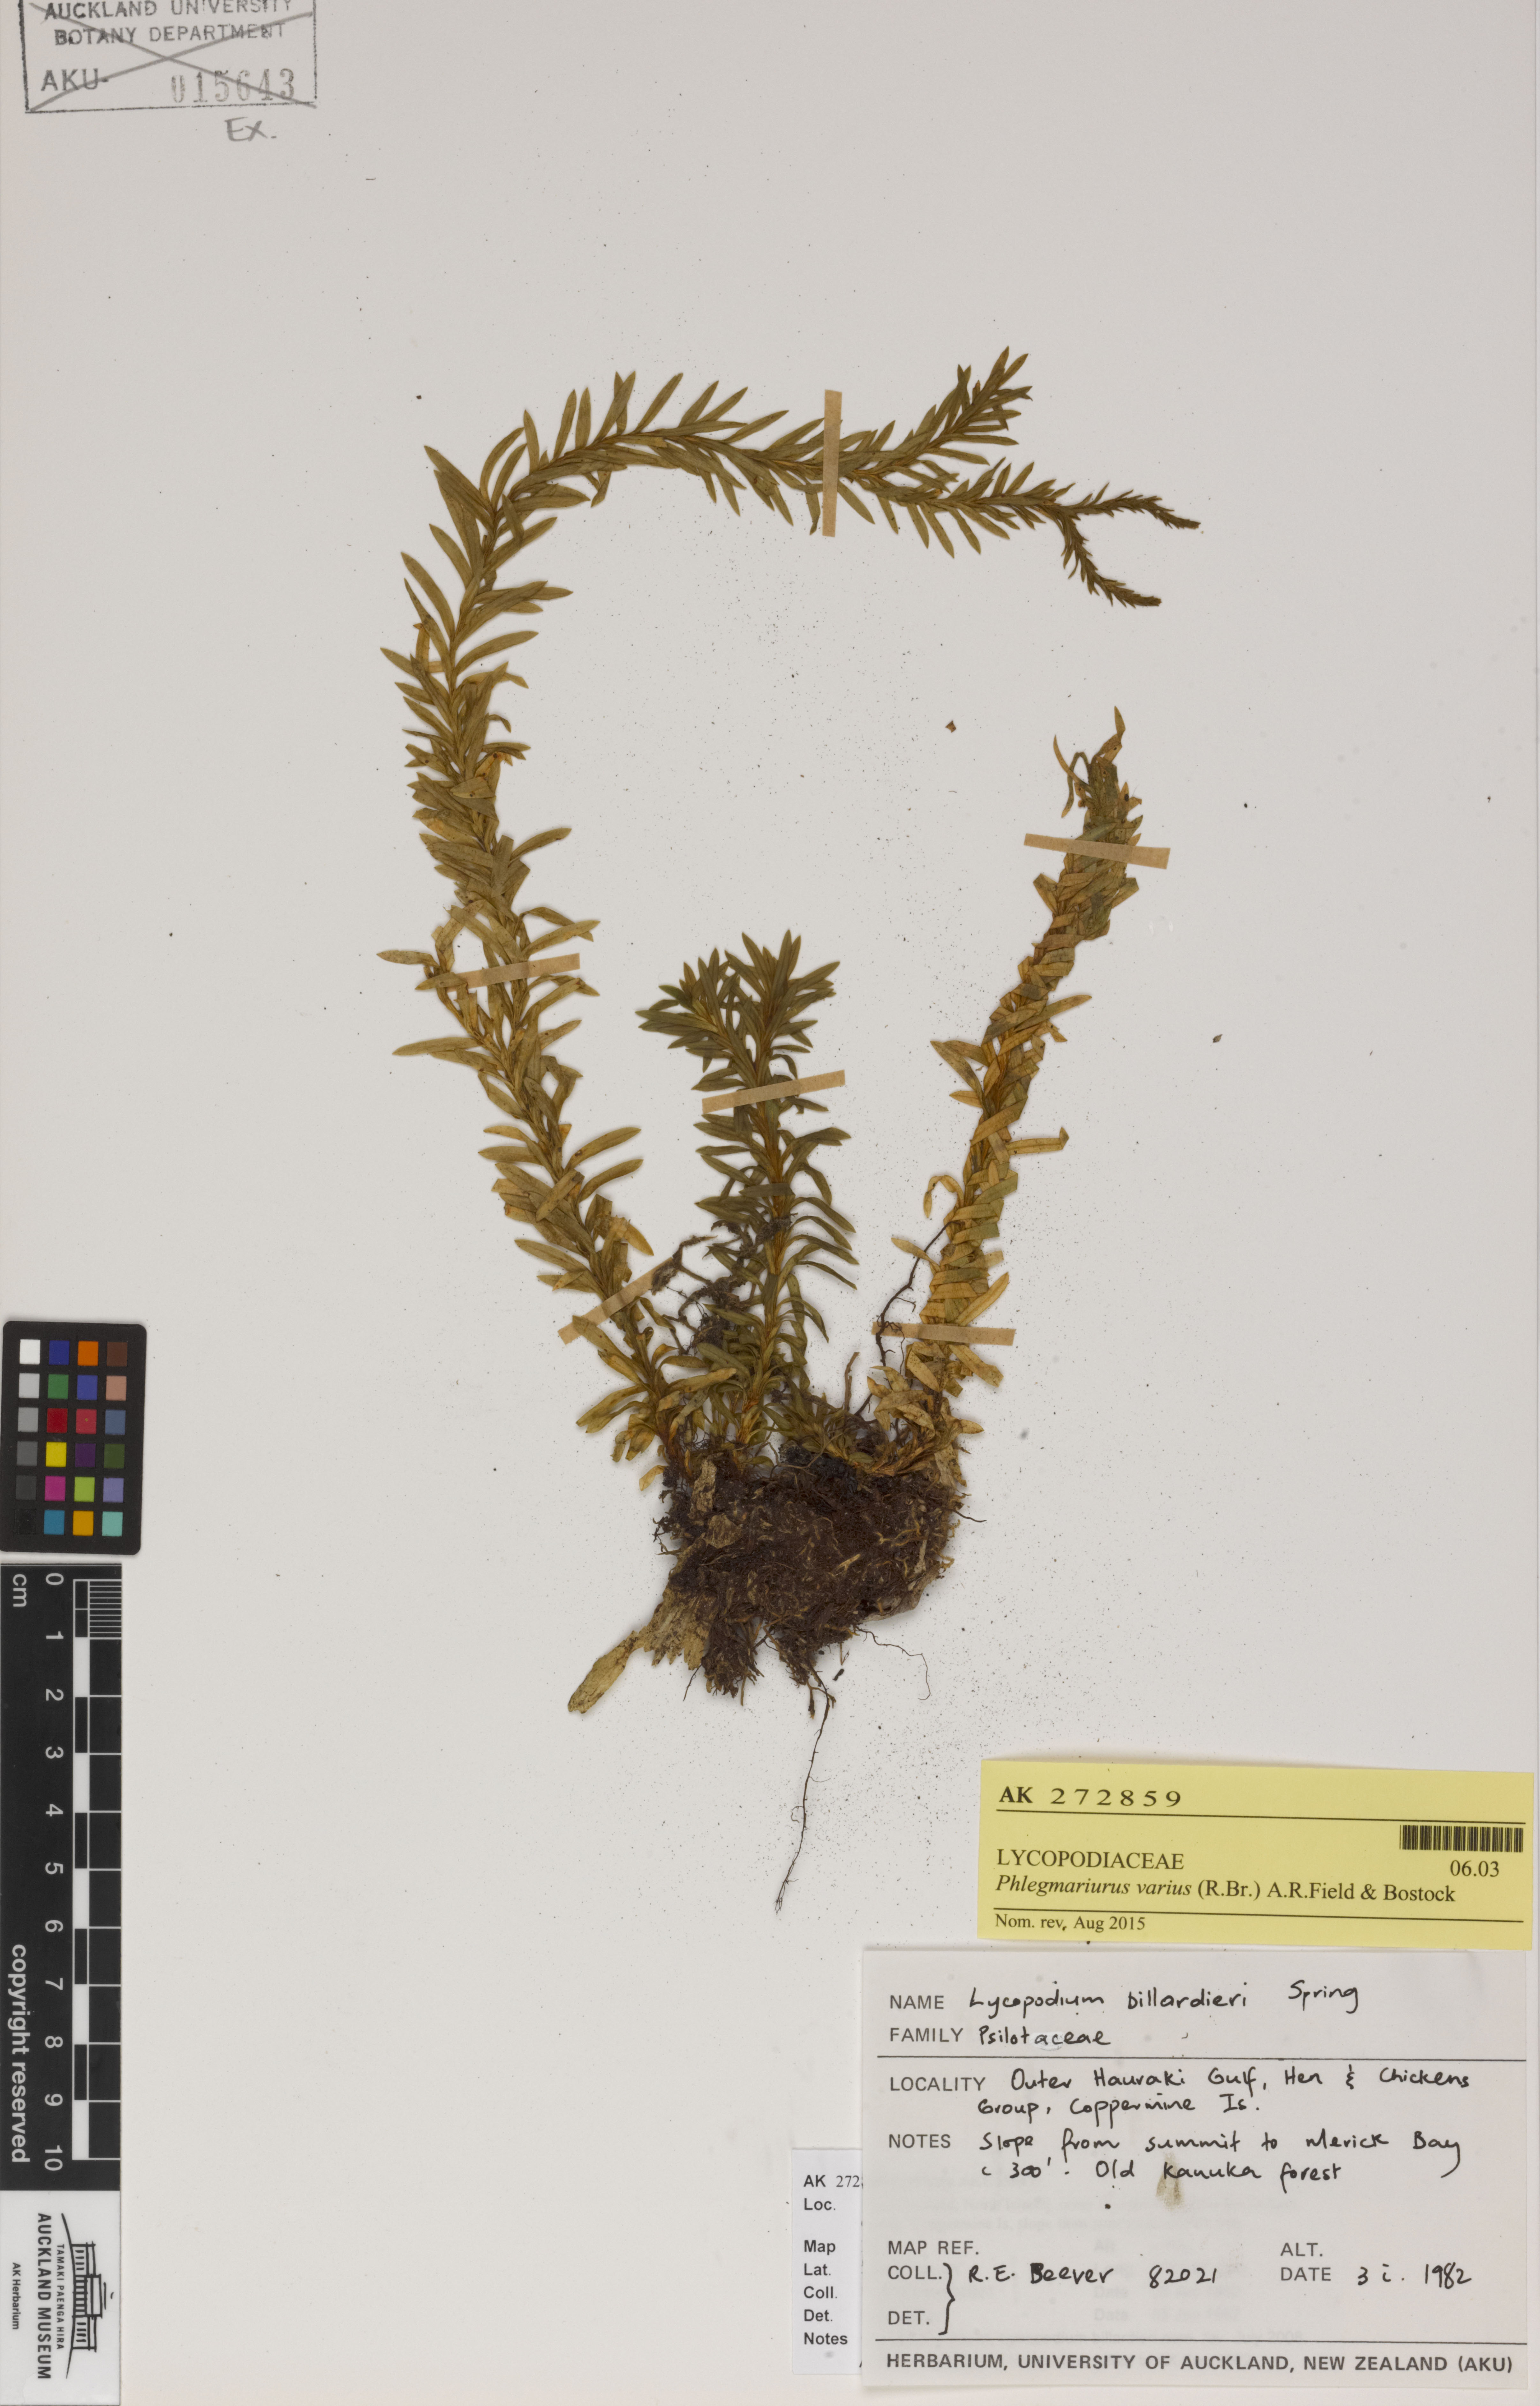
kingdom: Plantae
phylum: Tracheophyta
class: Lycopodiopsida
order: Lycopodiales
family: Lycopodiaceae
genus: Phlegmariurus
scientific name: Phlegmariurus
